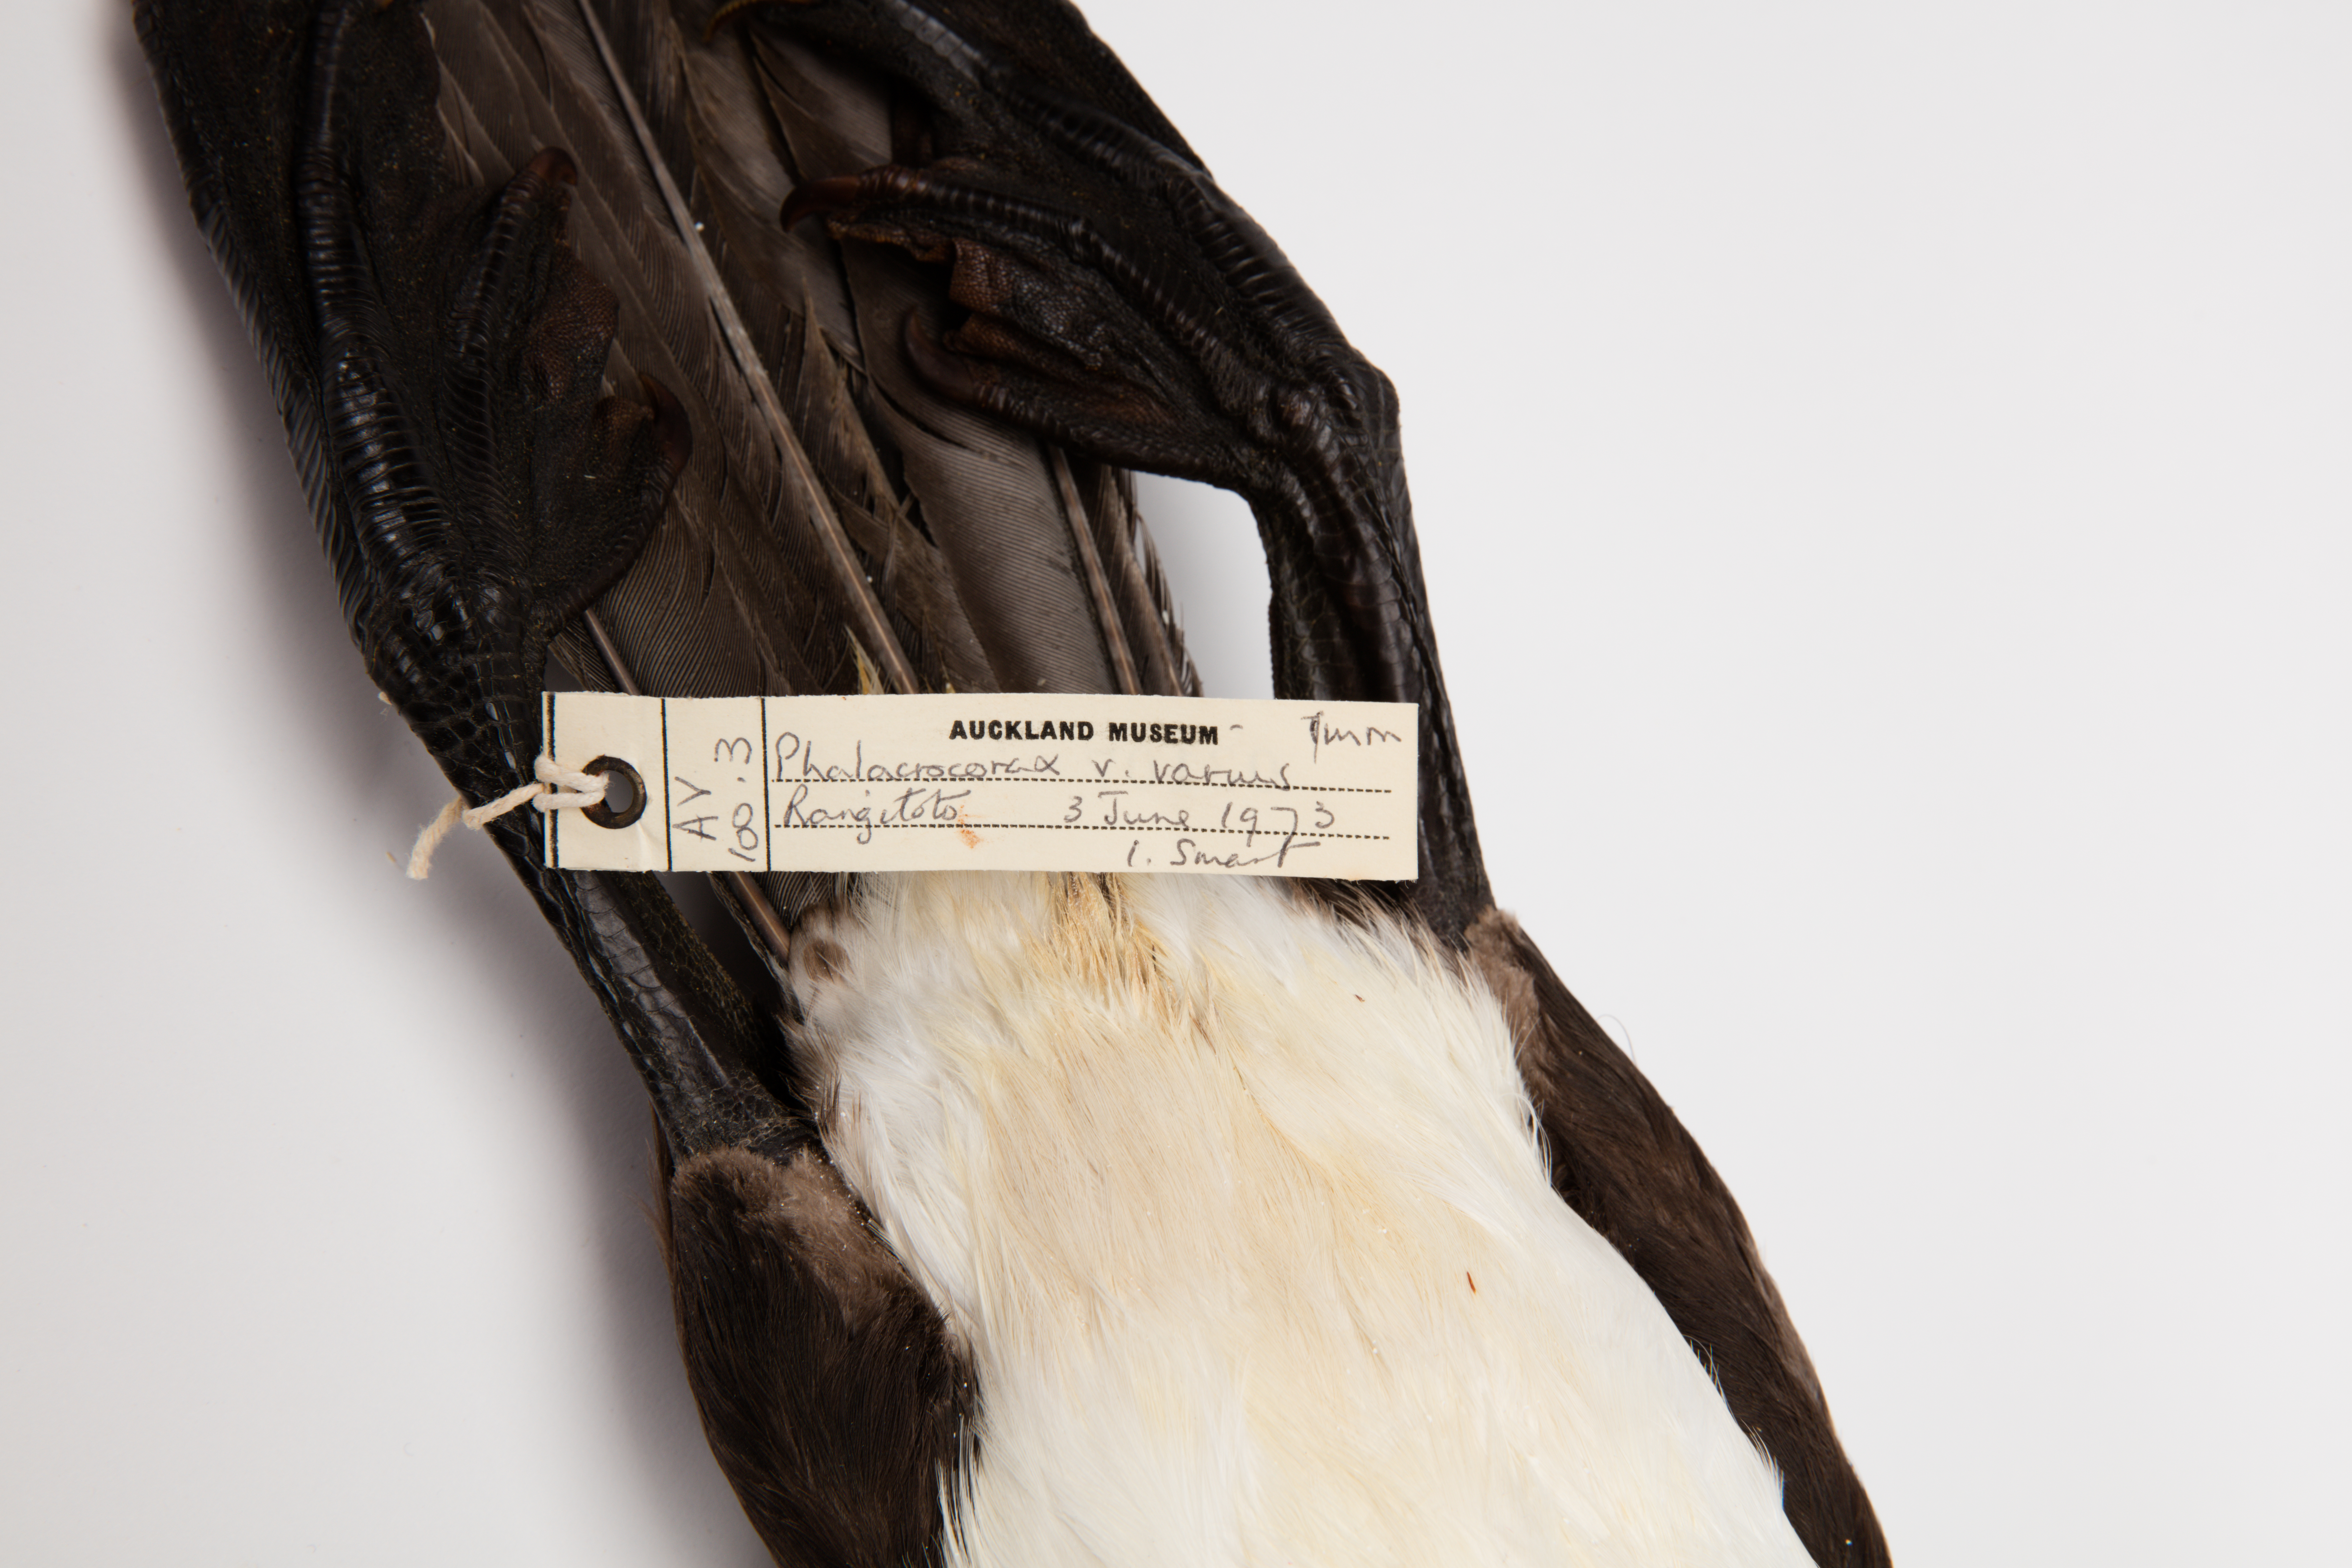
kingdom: Animalia
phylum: Chordata
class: Aves
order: Suliformes
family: Phalacrocoracidae
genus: Phalacrocorax
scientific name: Phalacrocorax varius
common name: Pied cormorant
